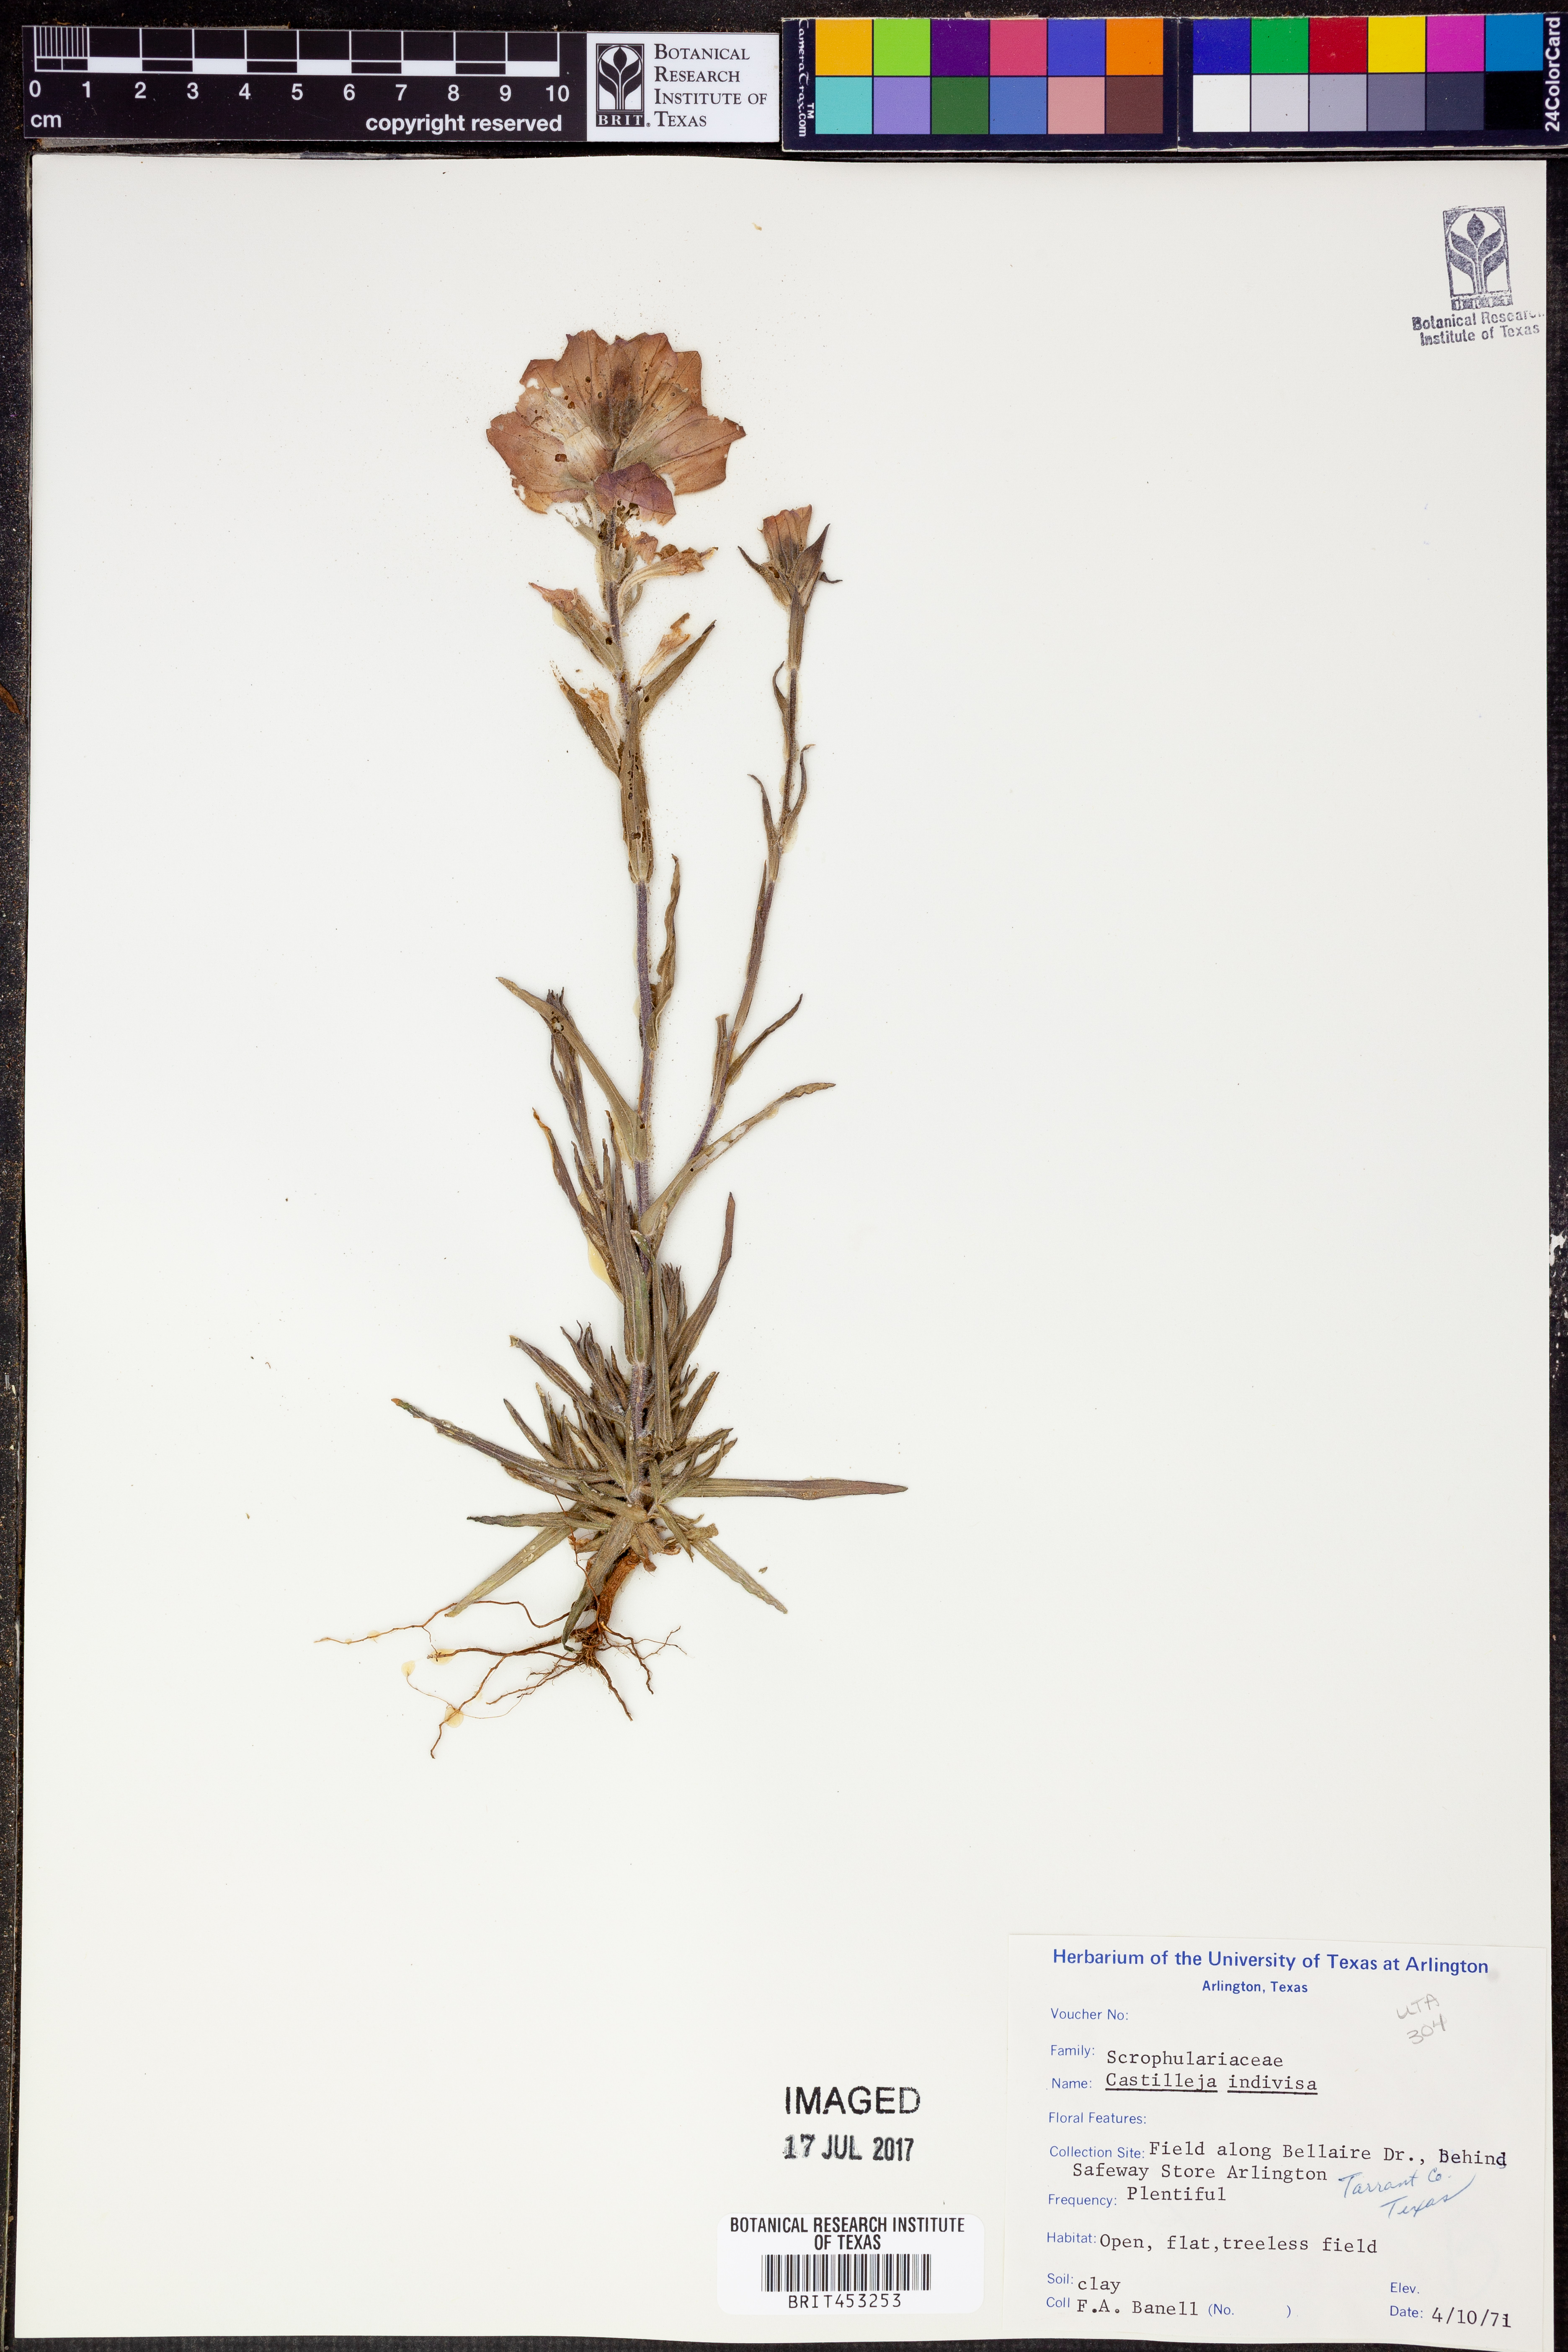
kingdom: Plantae
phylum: Tracheophyta
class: Magnoliopsida
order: Lamiales
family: Orobanchaceae
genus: Castilleja
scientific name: Castilleja indivisa
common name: Texas paintbrush
